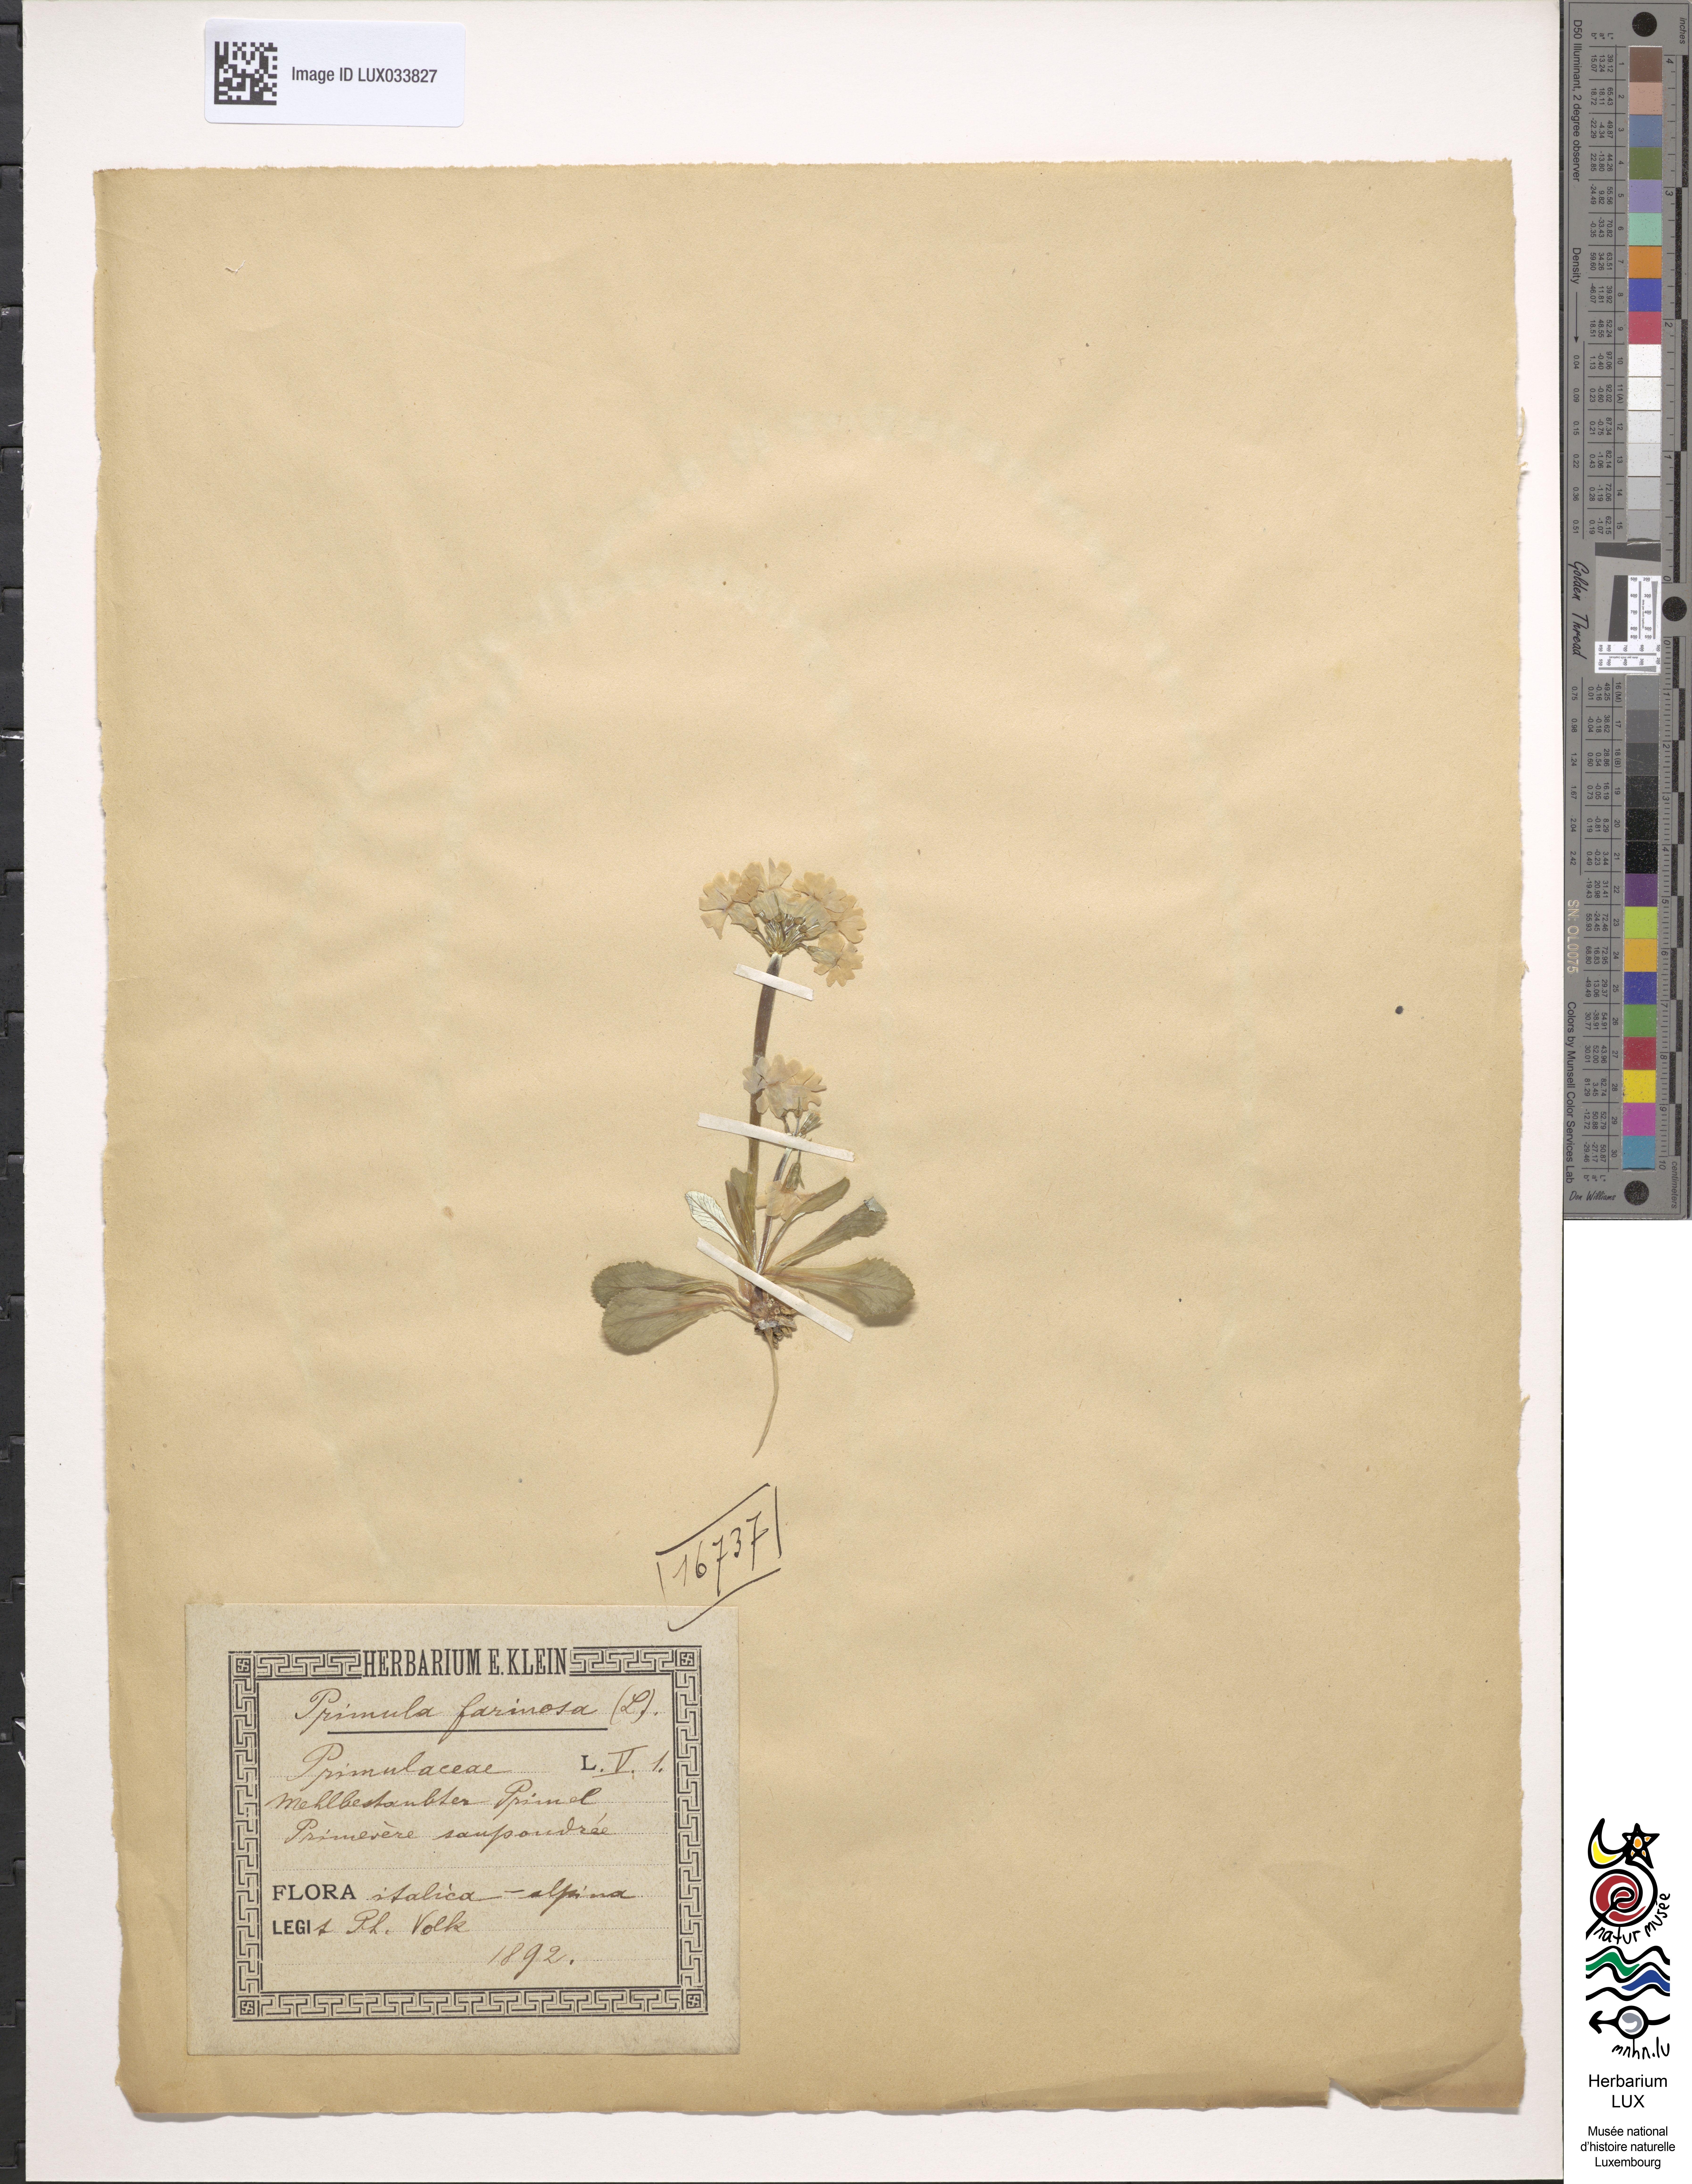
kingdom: Plantae
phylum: Tracheophyta
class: Magnoliopsida
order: Ericales
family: Primulaceae
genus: Primula
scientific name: Primula farinosa
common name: Bird's-eye primrose
